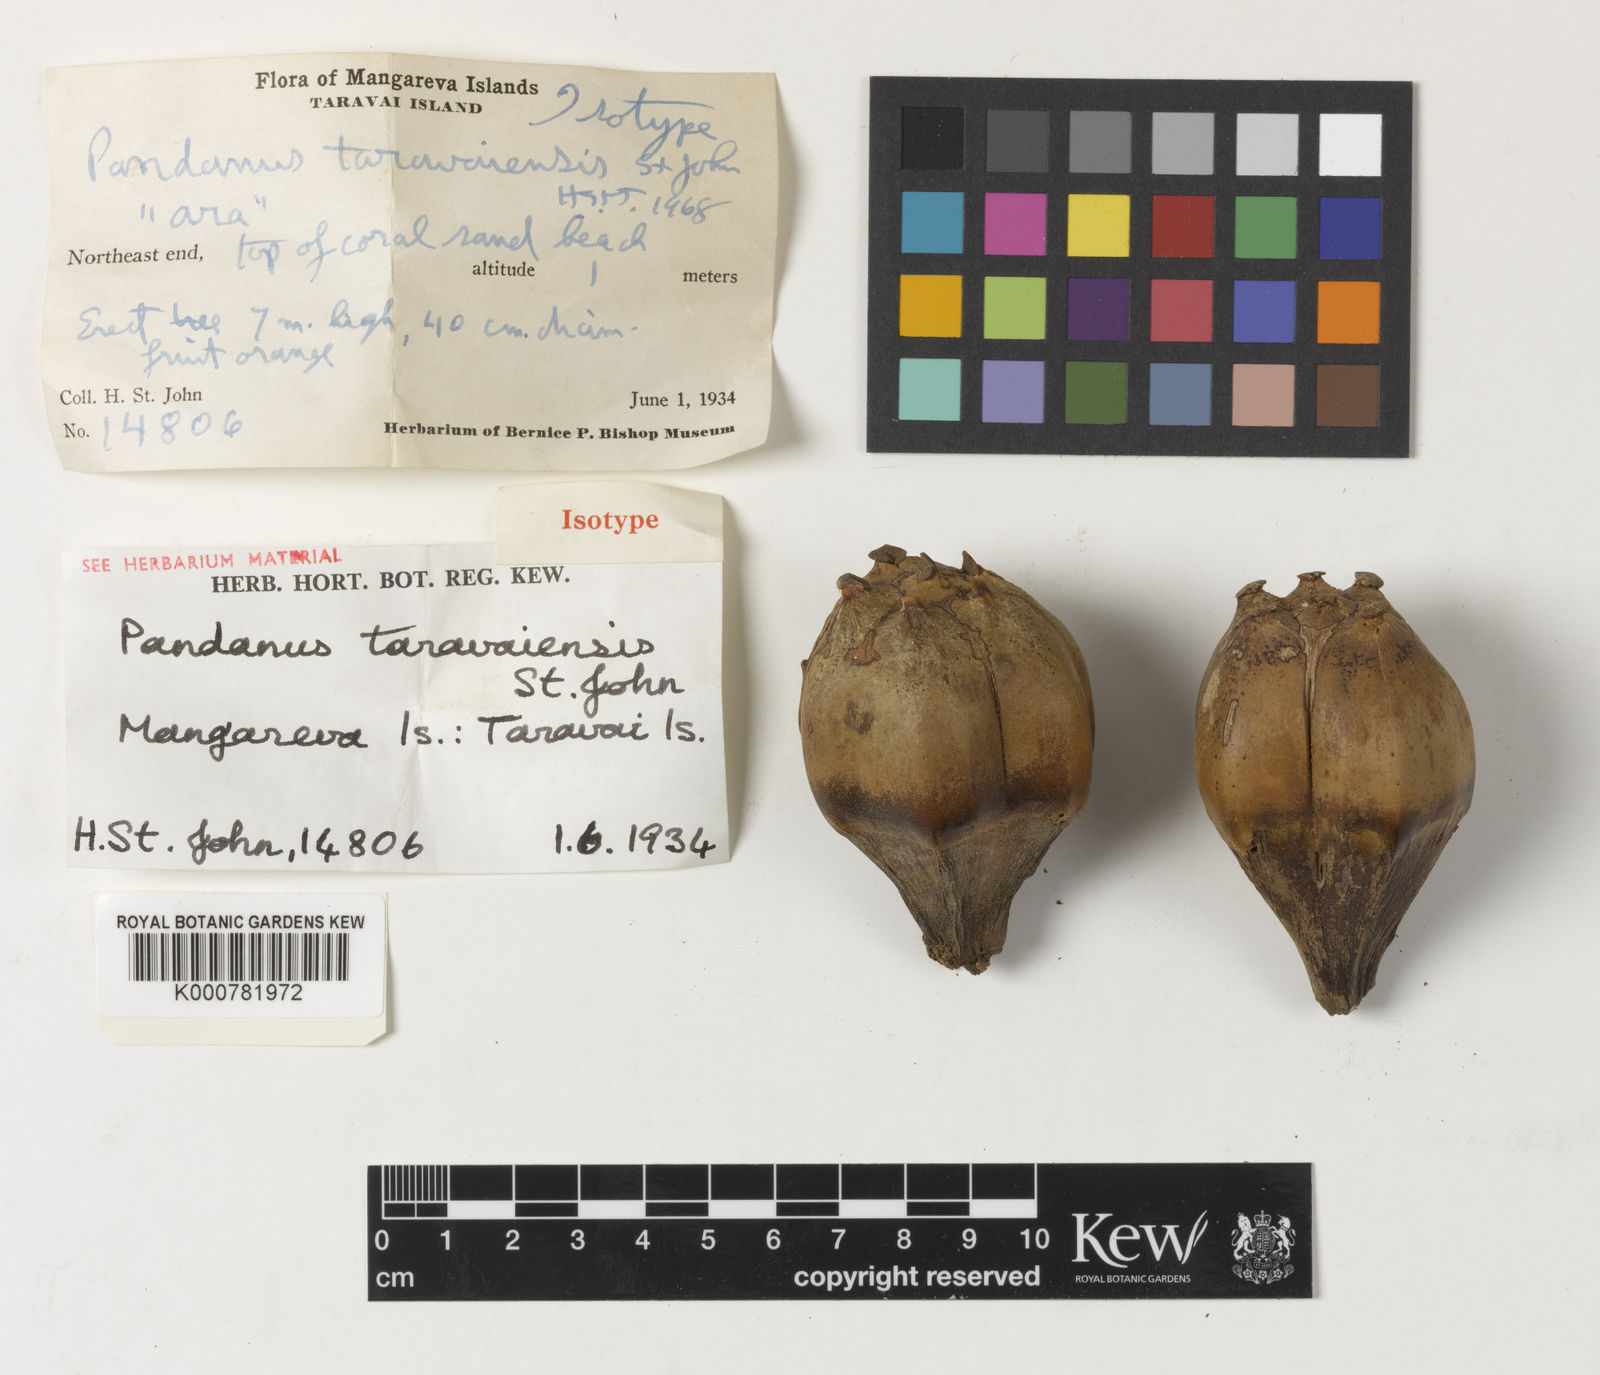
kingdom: Plantae
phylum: Tracheophyta
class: Liliopsida
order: Pandanales
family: Pandanaceae
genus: Pandanus
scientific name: Pandanus tectorius
